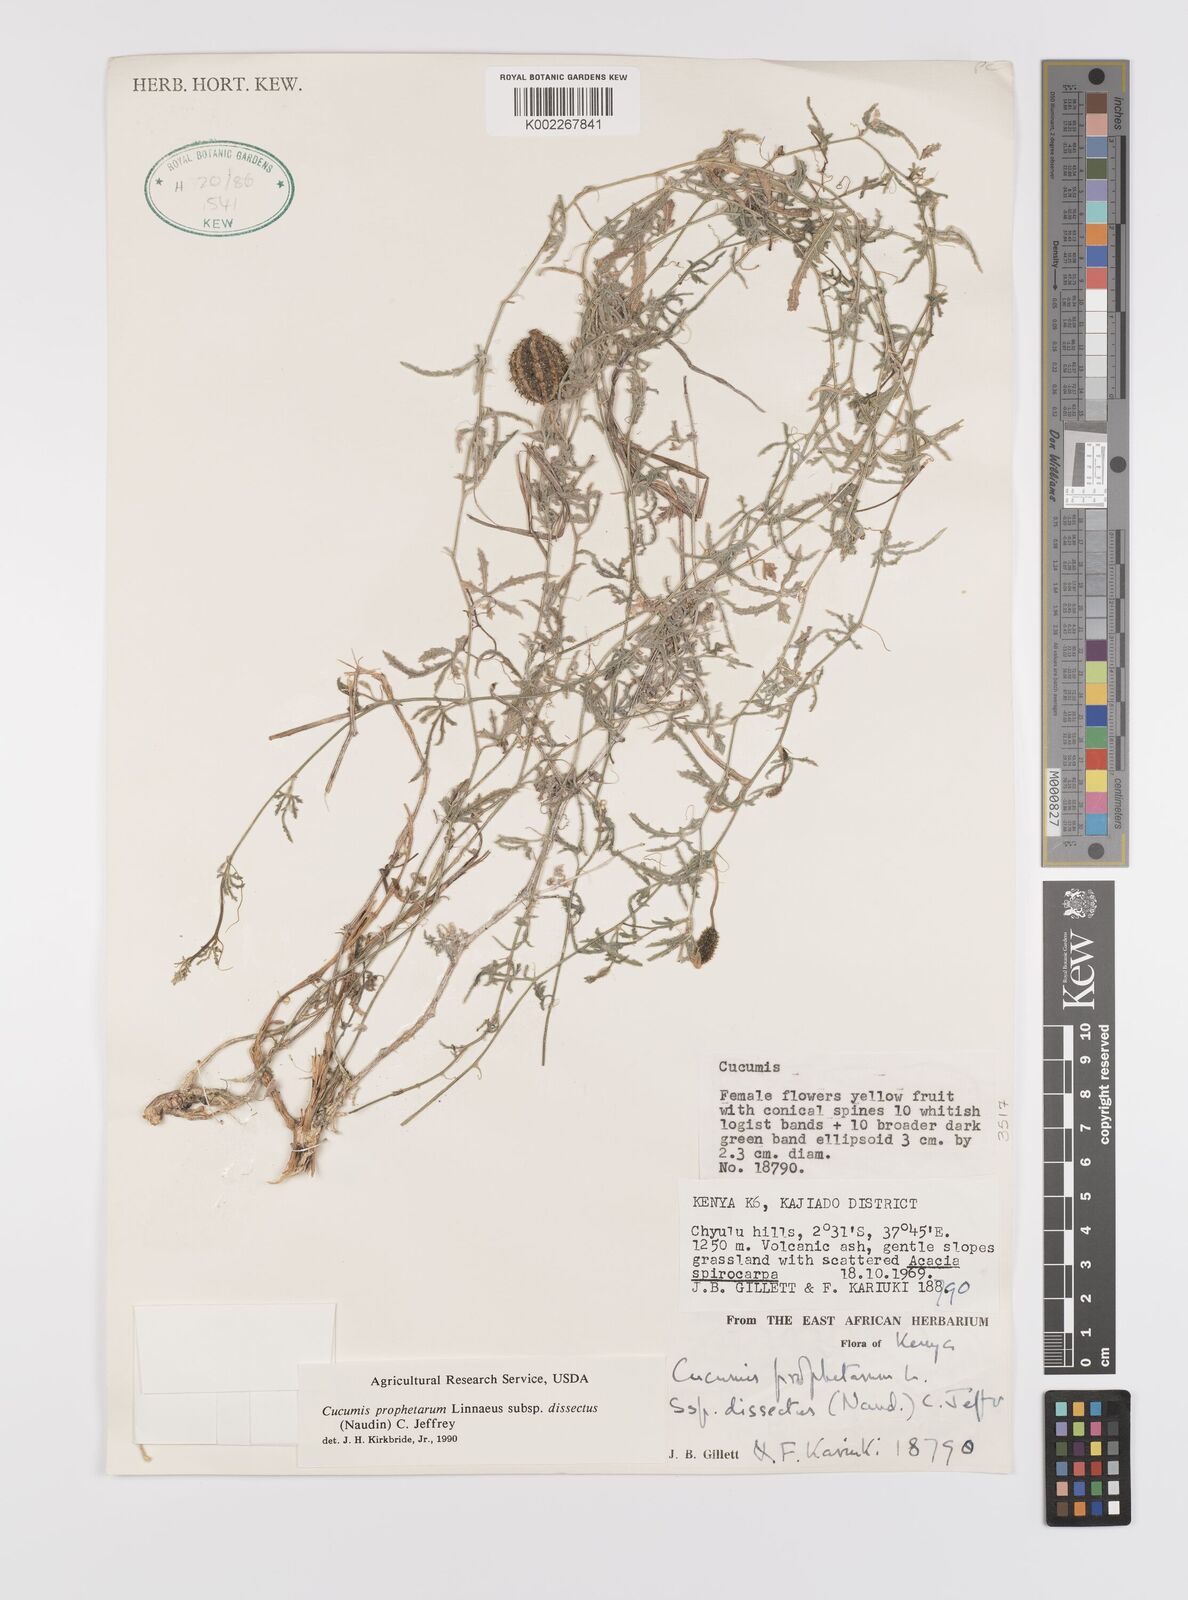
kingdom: Plantae
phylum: Tracheophyta
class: Magnoliopsida
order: Cucurbitales
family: Cucurbitaceae
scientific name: Cucurbitaceae
